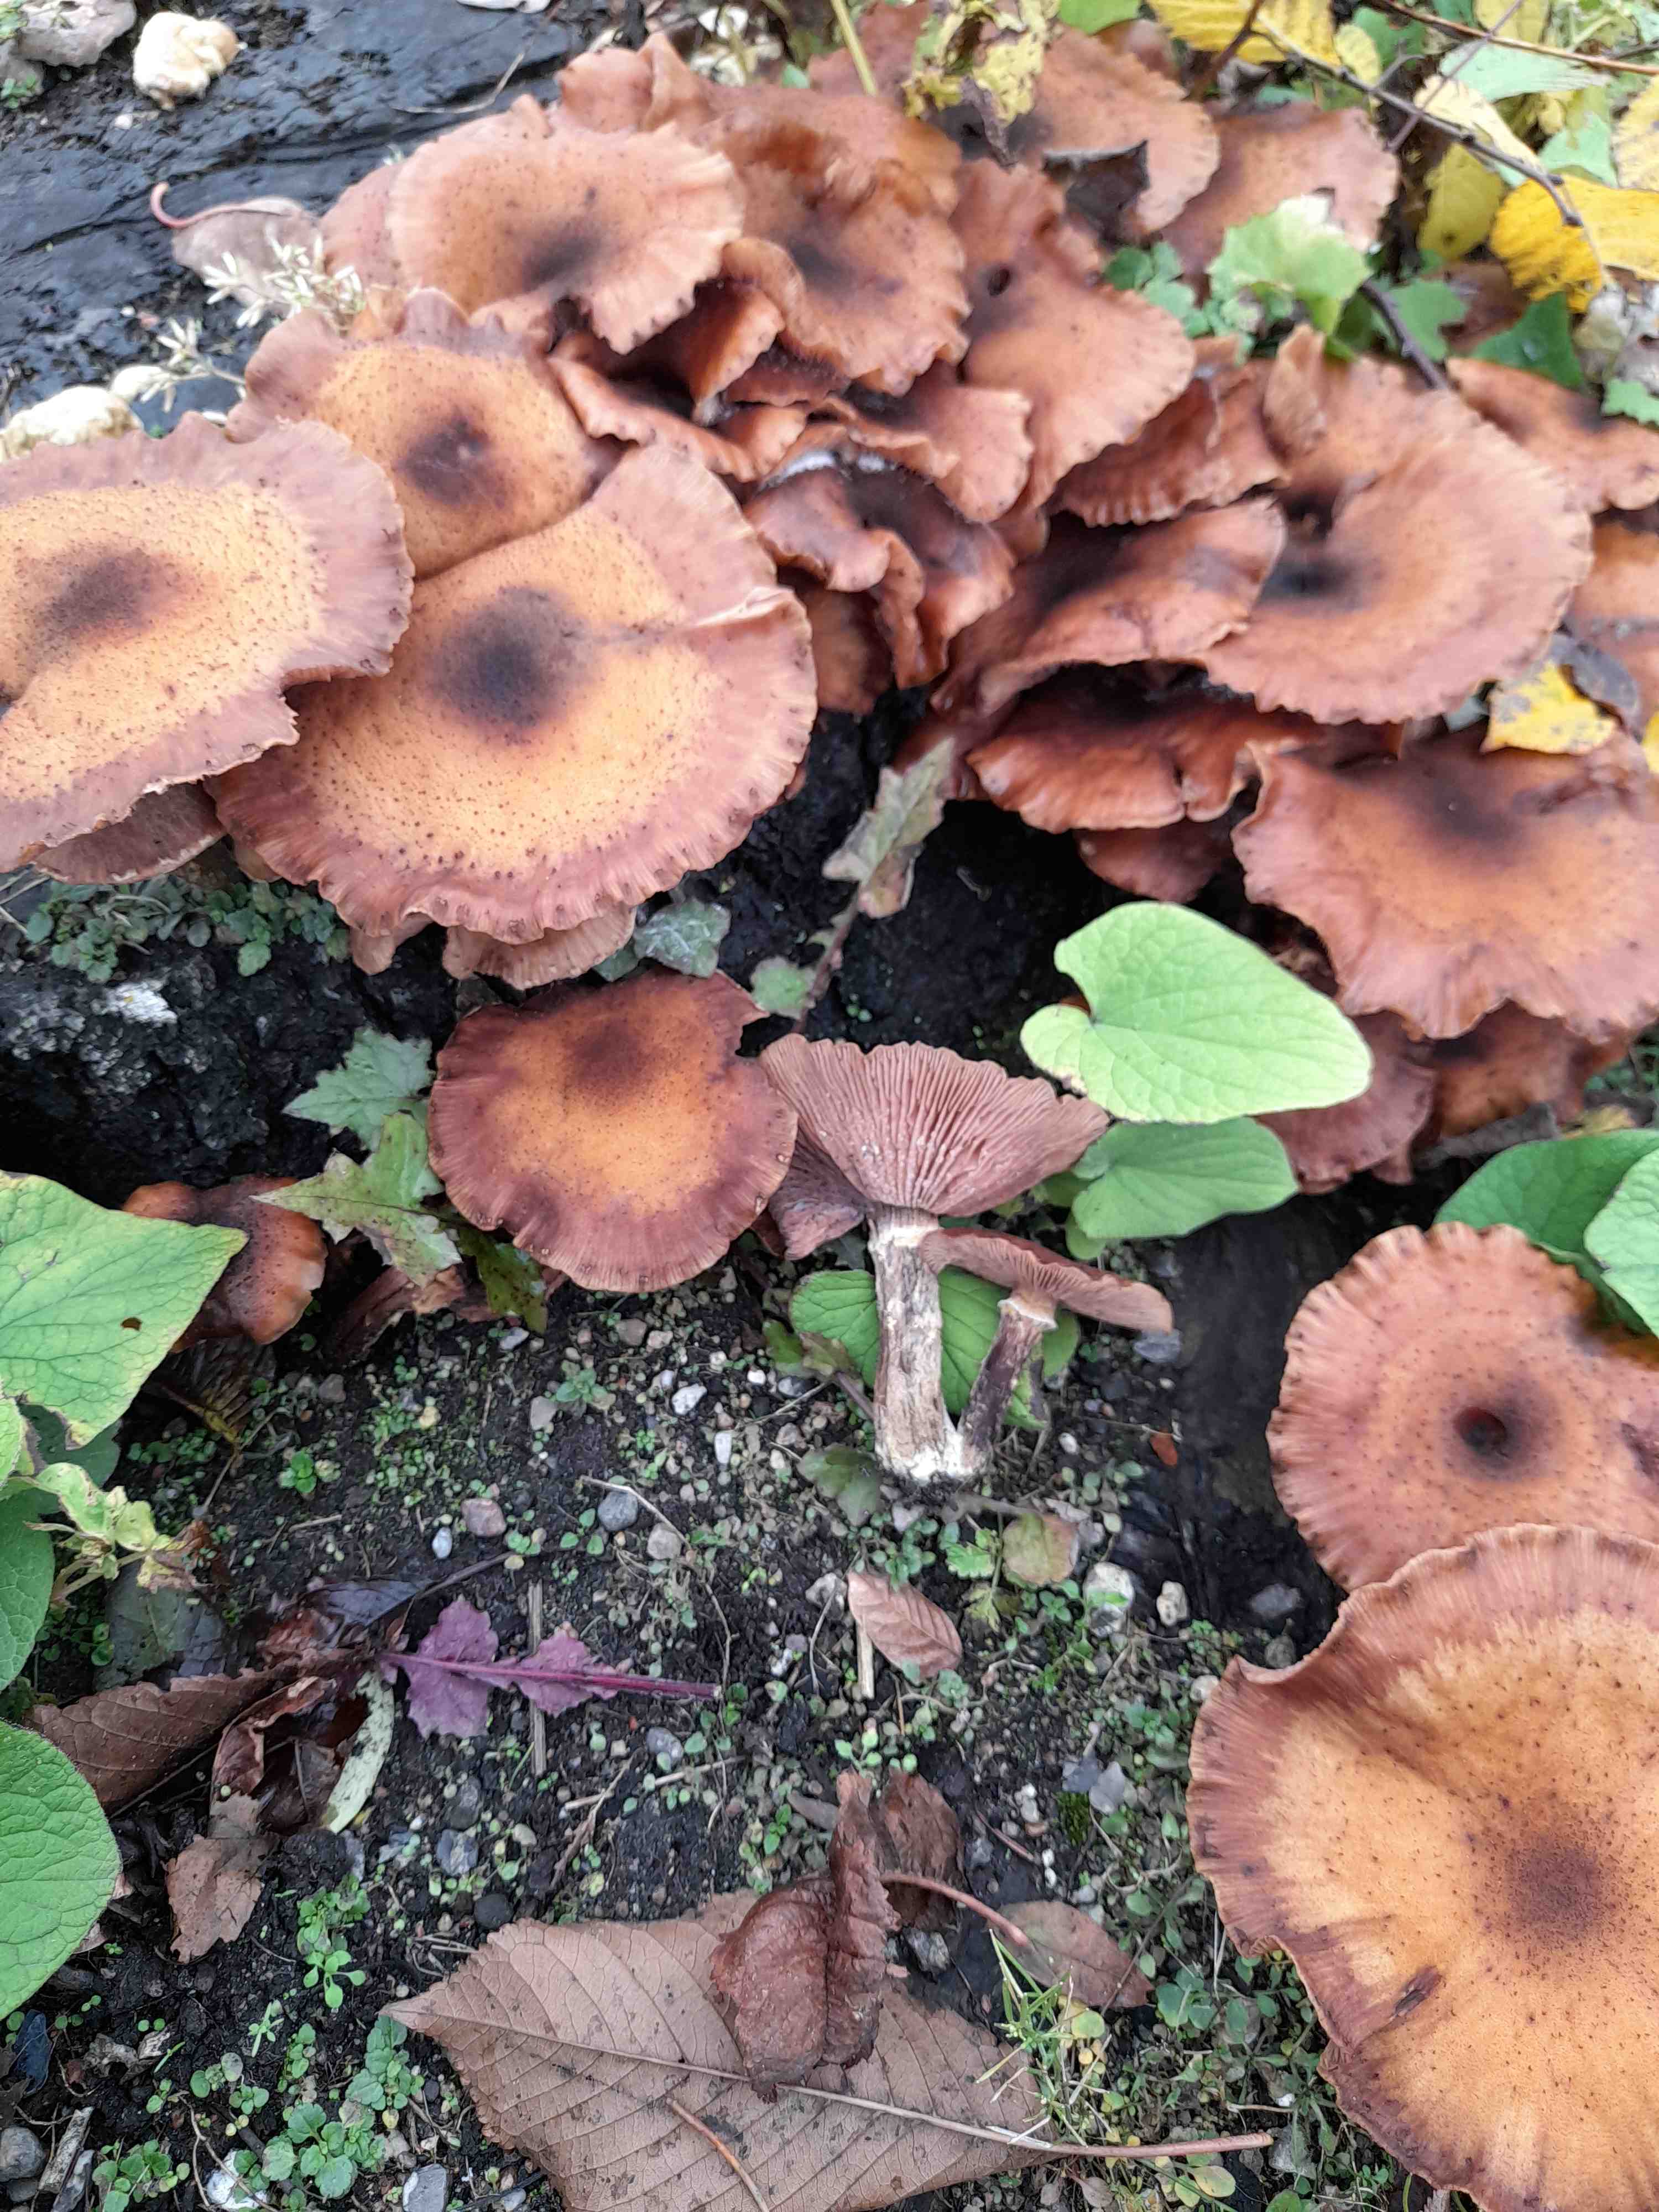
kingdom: Fungi
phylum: Basidiomycota
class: Agaricomycetes
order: Agaricales
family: Physalacriaceae
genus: Armillaria
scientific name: Armillaria lutea
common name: køllestokket honningsvamp
